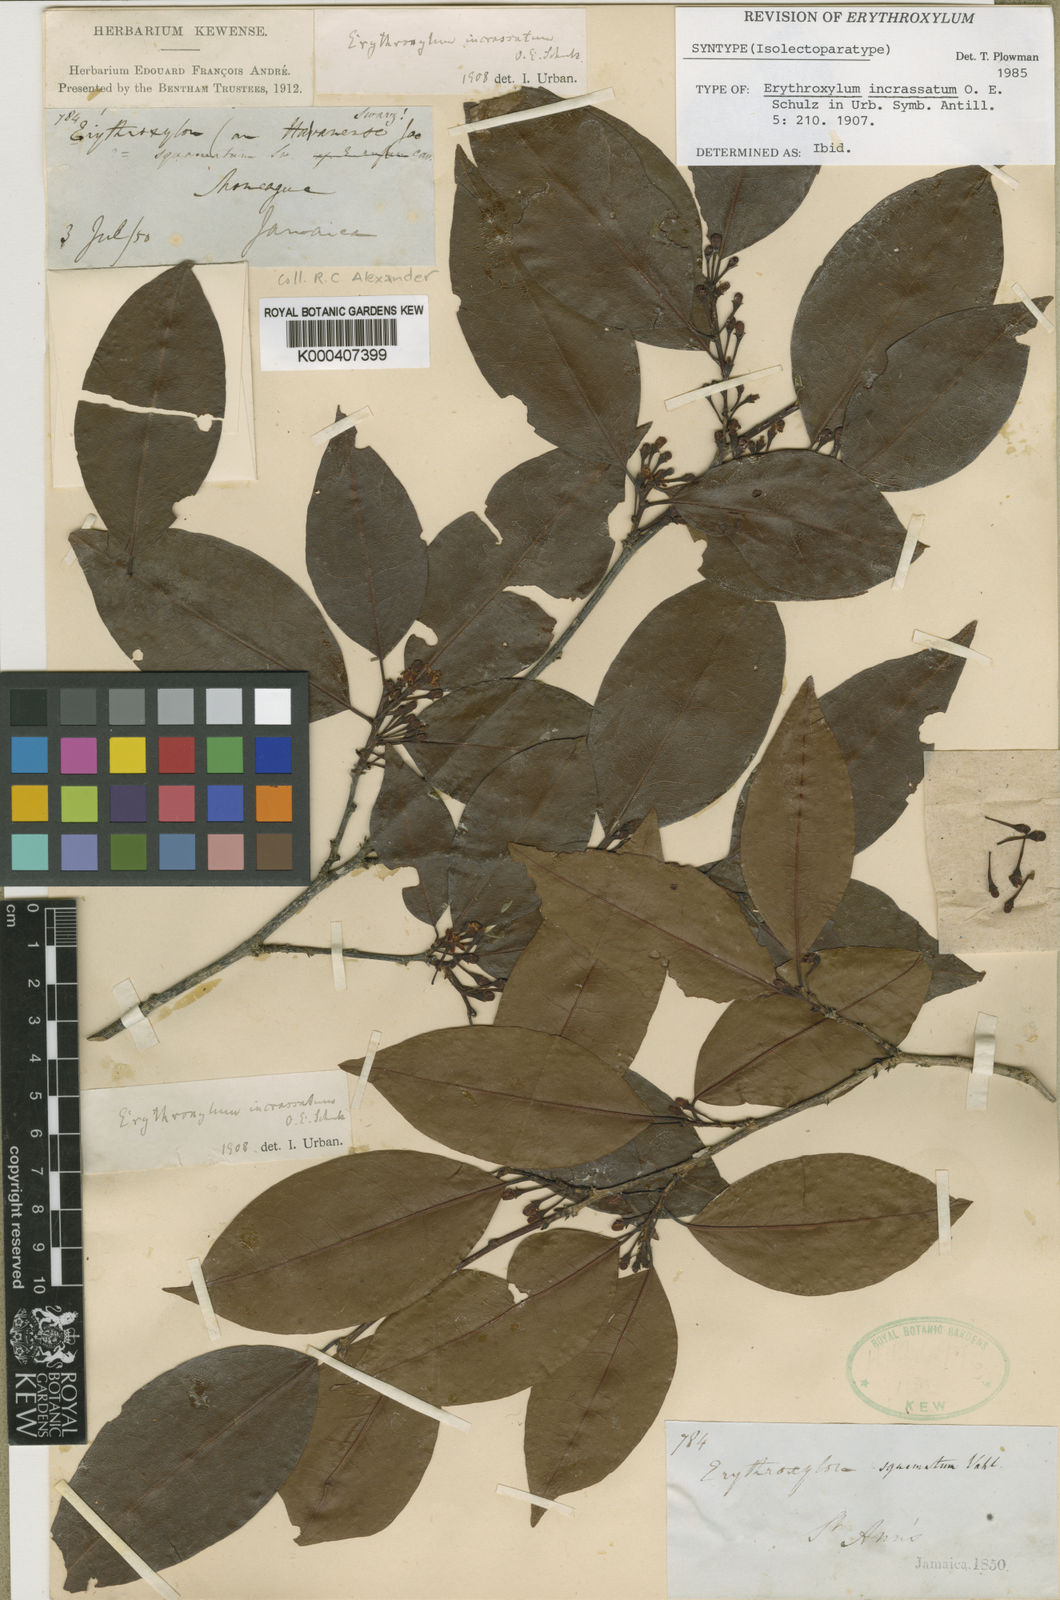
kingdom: Plantae
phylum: Tracheophyta
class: Magnoliopsida
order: Malpighiales
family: Erythroxylaceae
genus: Erythroxylum
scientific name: Erythroxylum incrassatum
